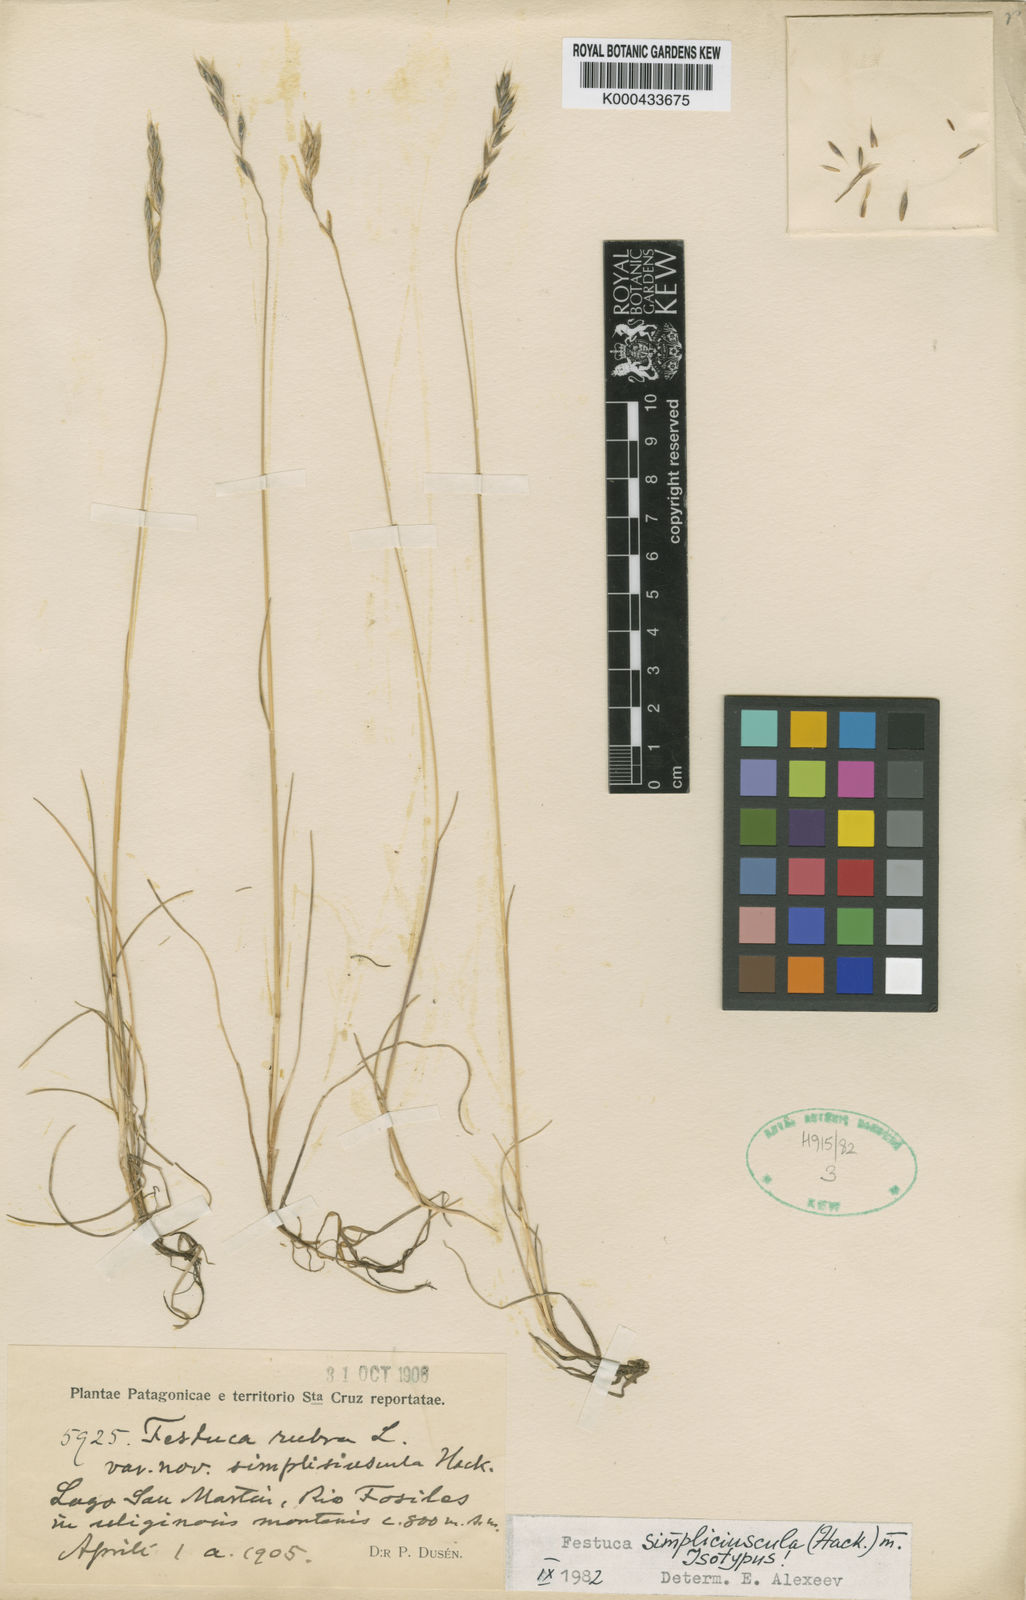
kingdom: Plantae
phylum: Tracheophyta
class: Liliopsida
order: Poales
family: Poaceae
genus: Festuca
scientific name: Festuca simpliciuscula
